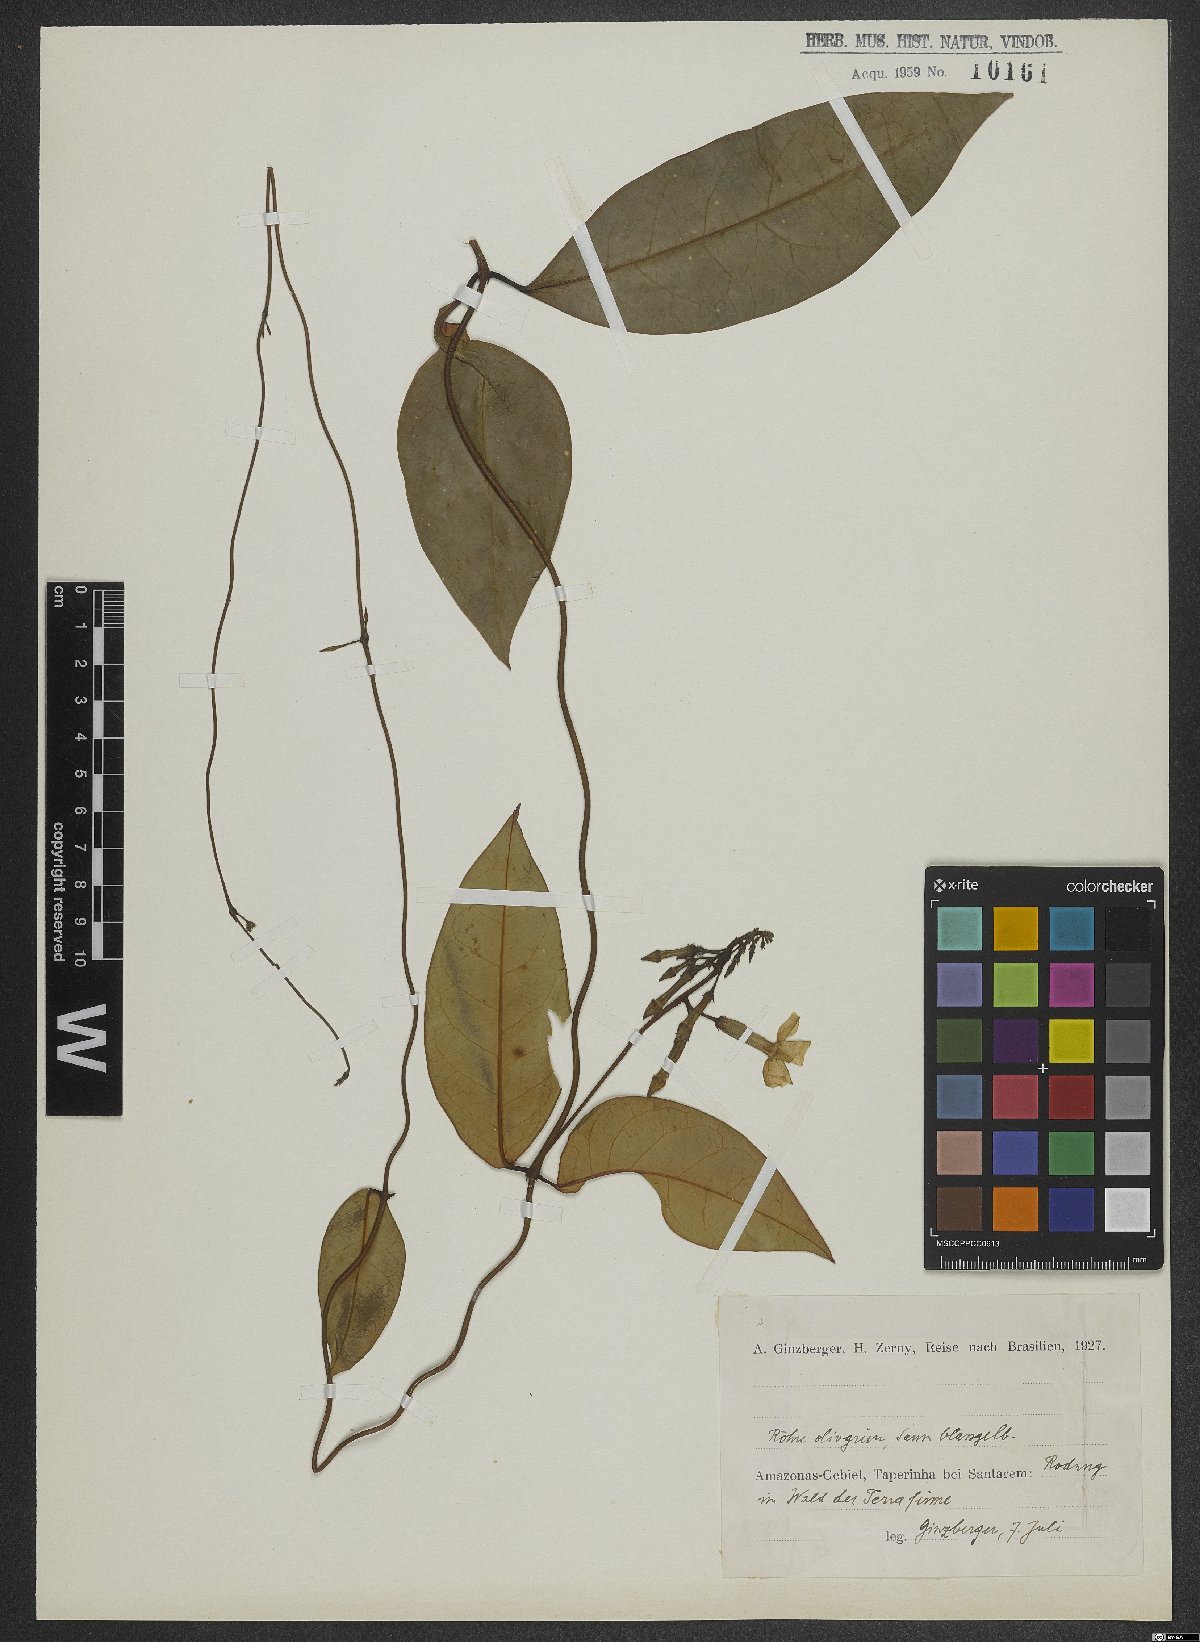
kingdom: Plantae
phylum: Tracheophyta
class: Magnoliopsida
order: Dipsacales
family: Valerianaceae
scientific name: Valerianaceae
